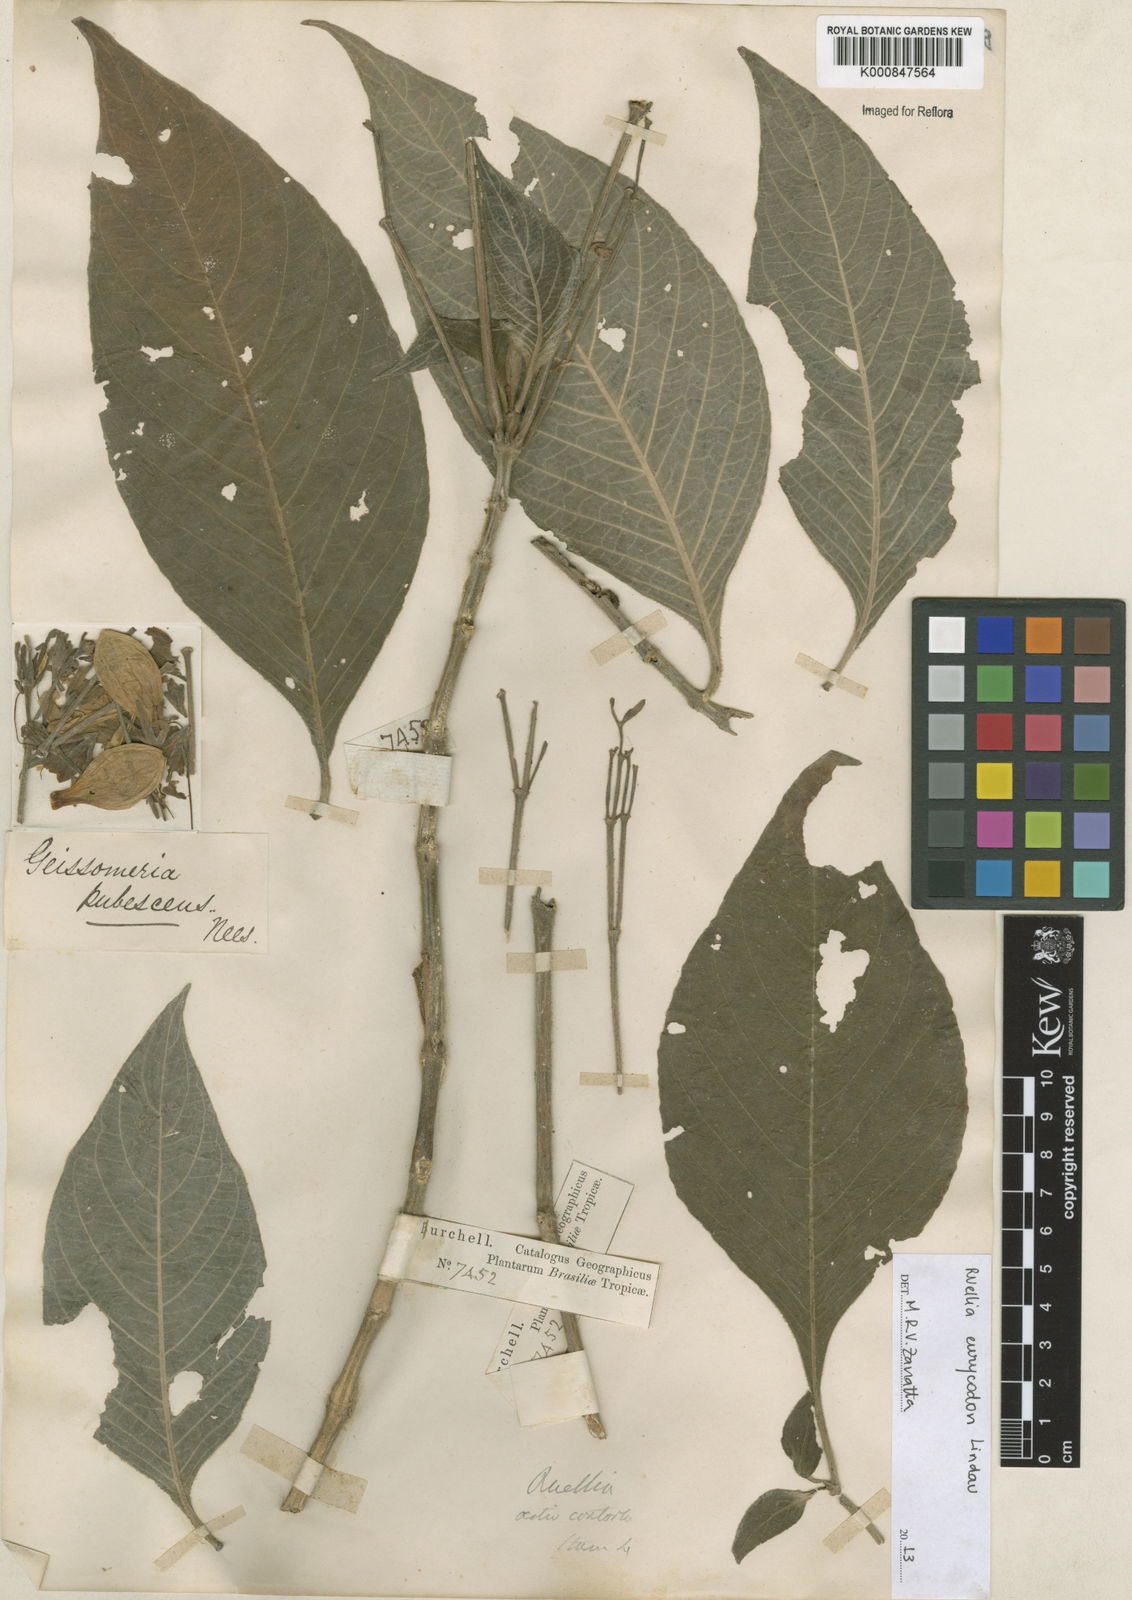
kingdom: Plantae
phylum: Tracheophyta
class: Magnoliopsida
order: Lamiales
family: Acanthaceae
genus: Ruellia
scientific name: Ruellia eurycodon
